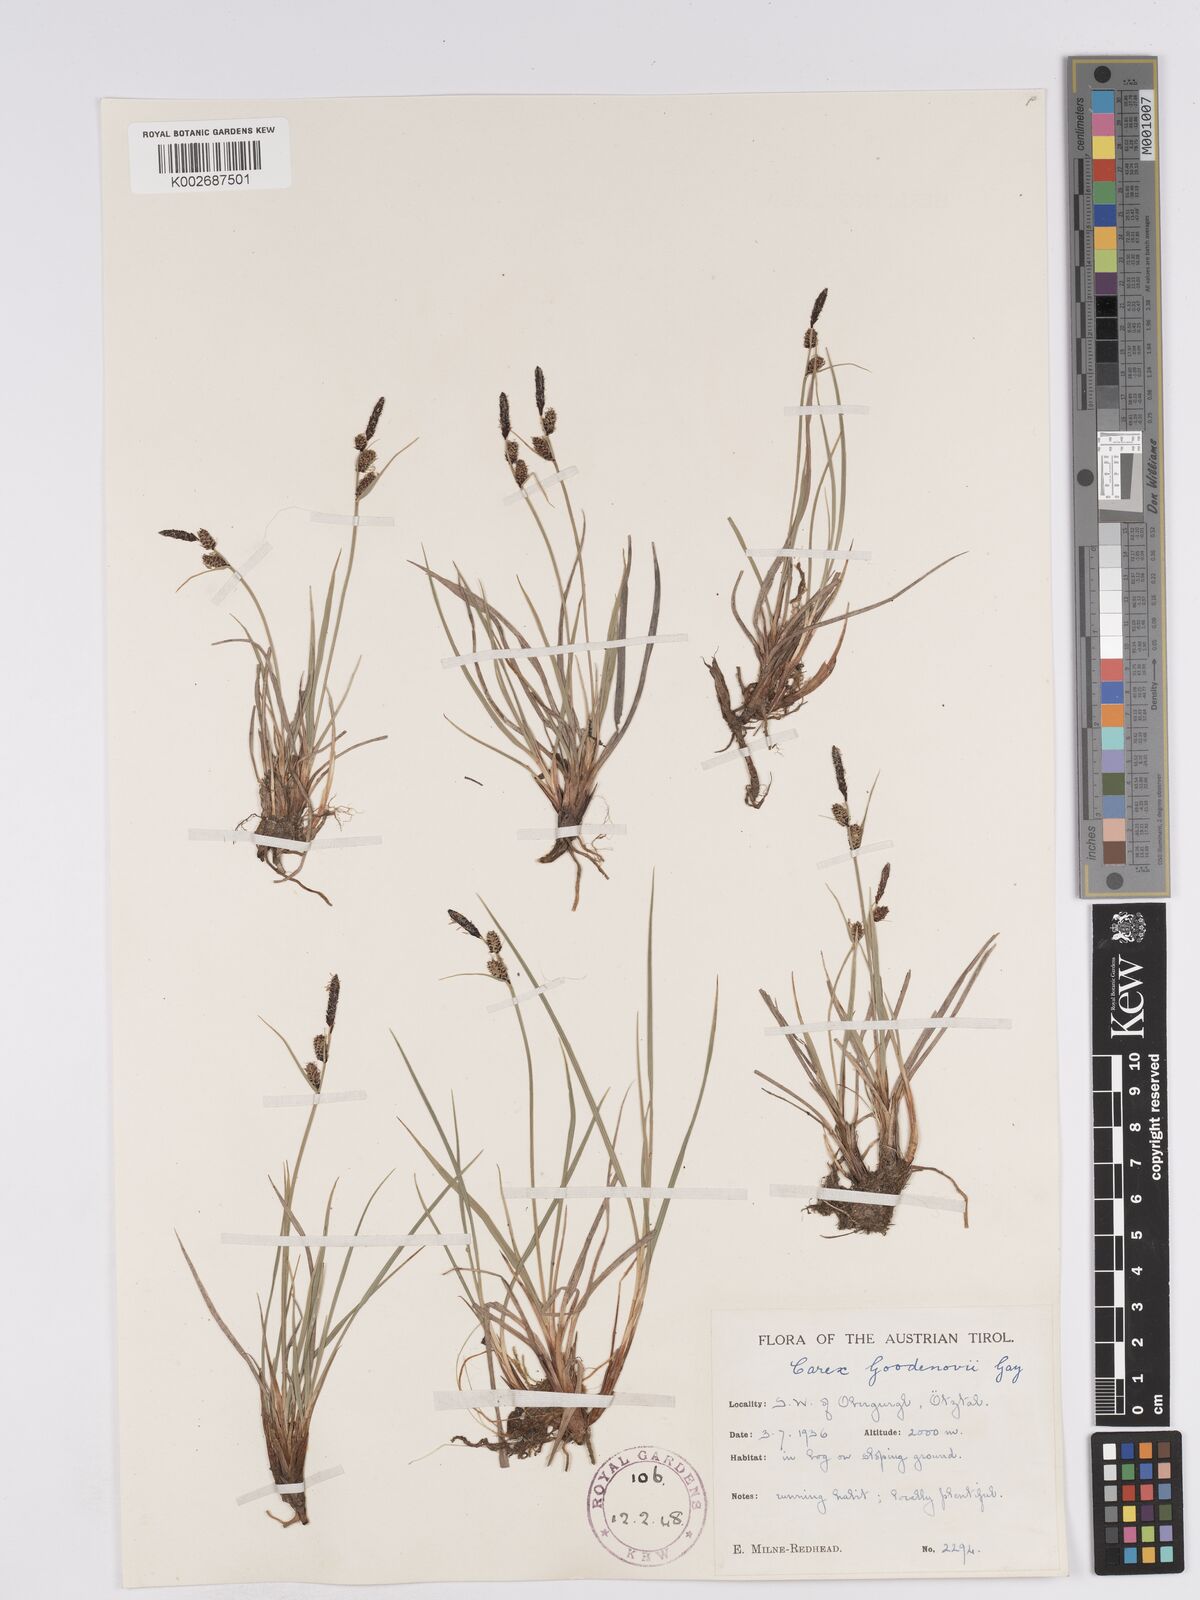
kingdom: Plantae
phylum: Tracheophyta
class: Liliopsida
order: Poales
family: Cyperaceae
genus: Carex
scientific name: Carex nigra
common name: Common sedge
